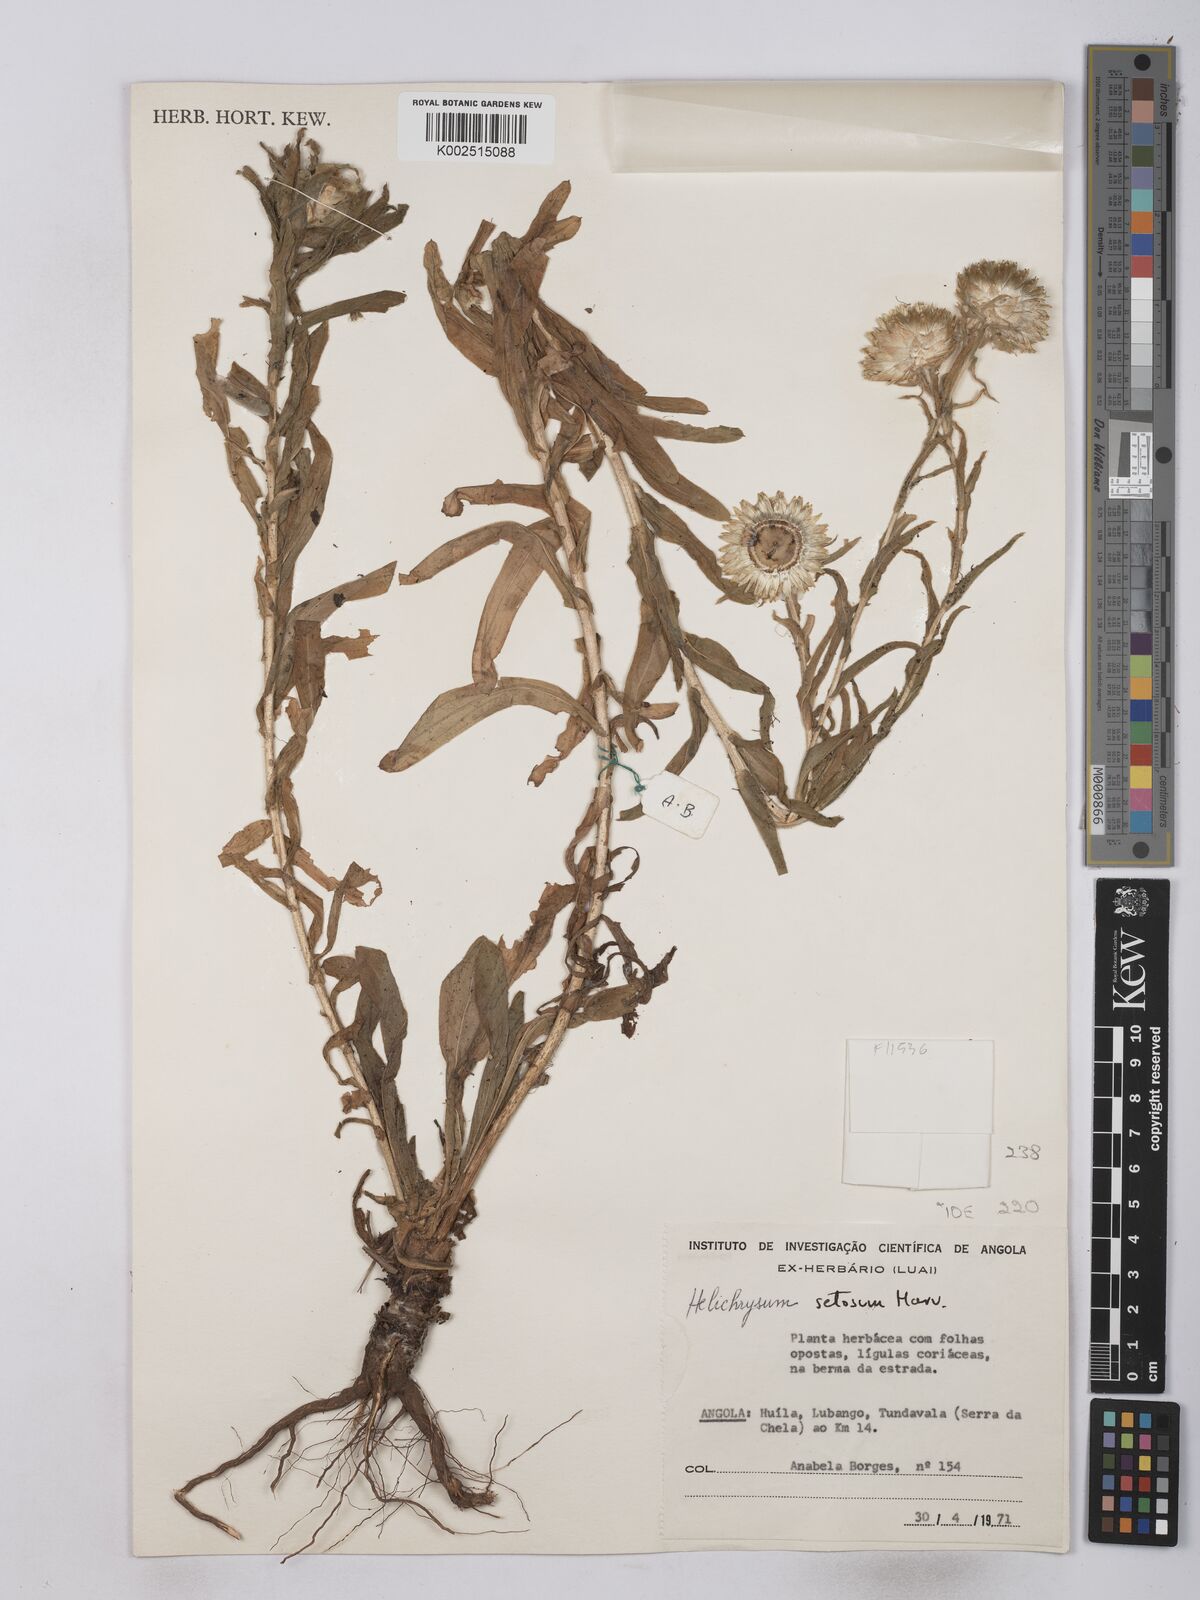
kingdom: Plantae
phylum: Tracheophyta
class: Magnoliopsida
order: Asterales
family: Asteraceae
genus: Helichrysum
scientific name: Helichrysum setosum
